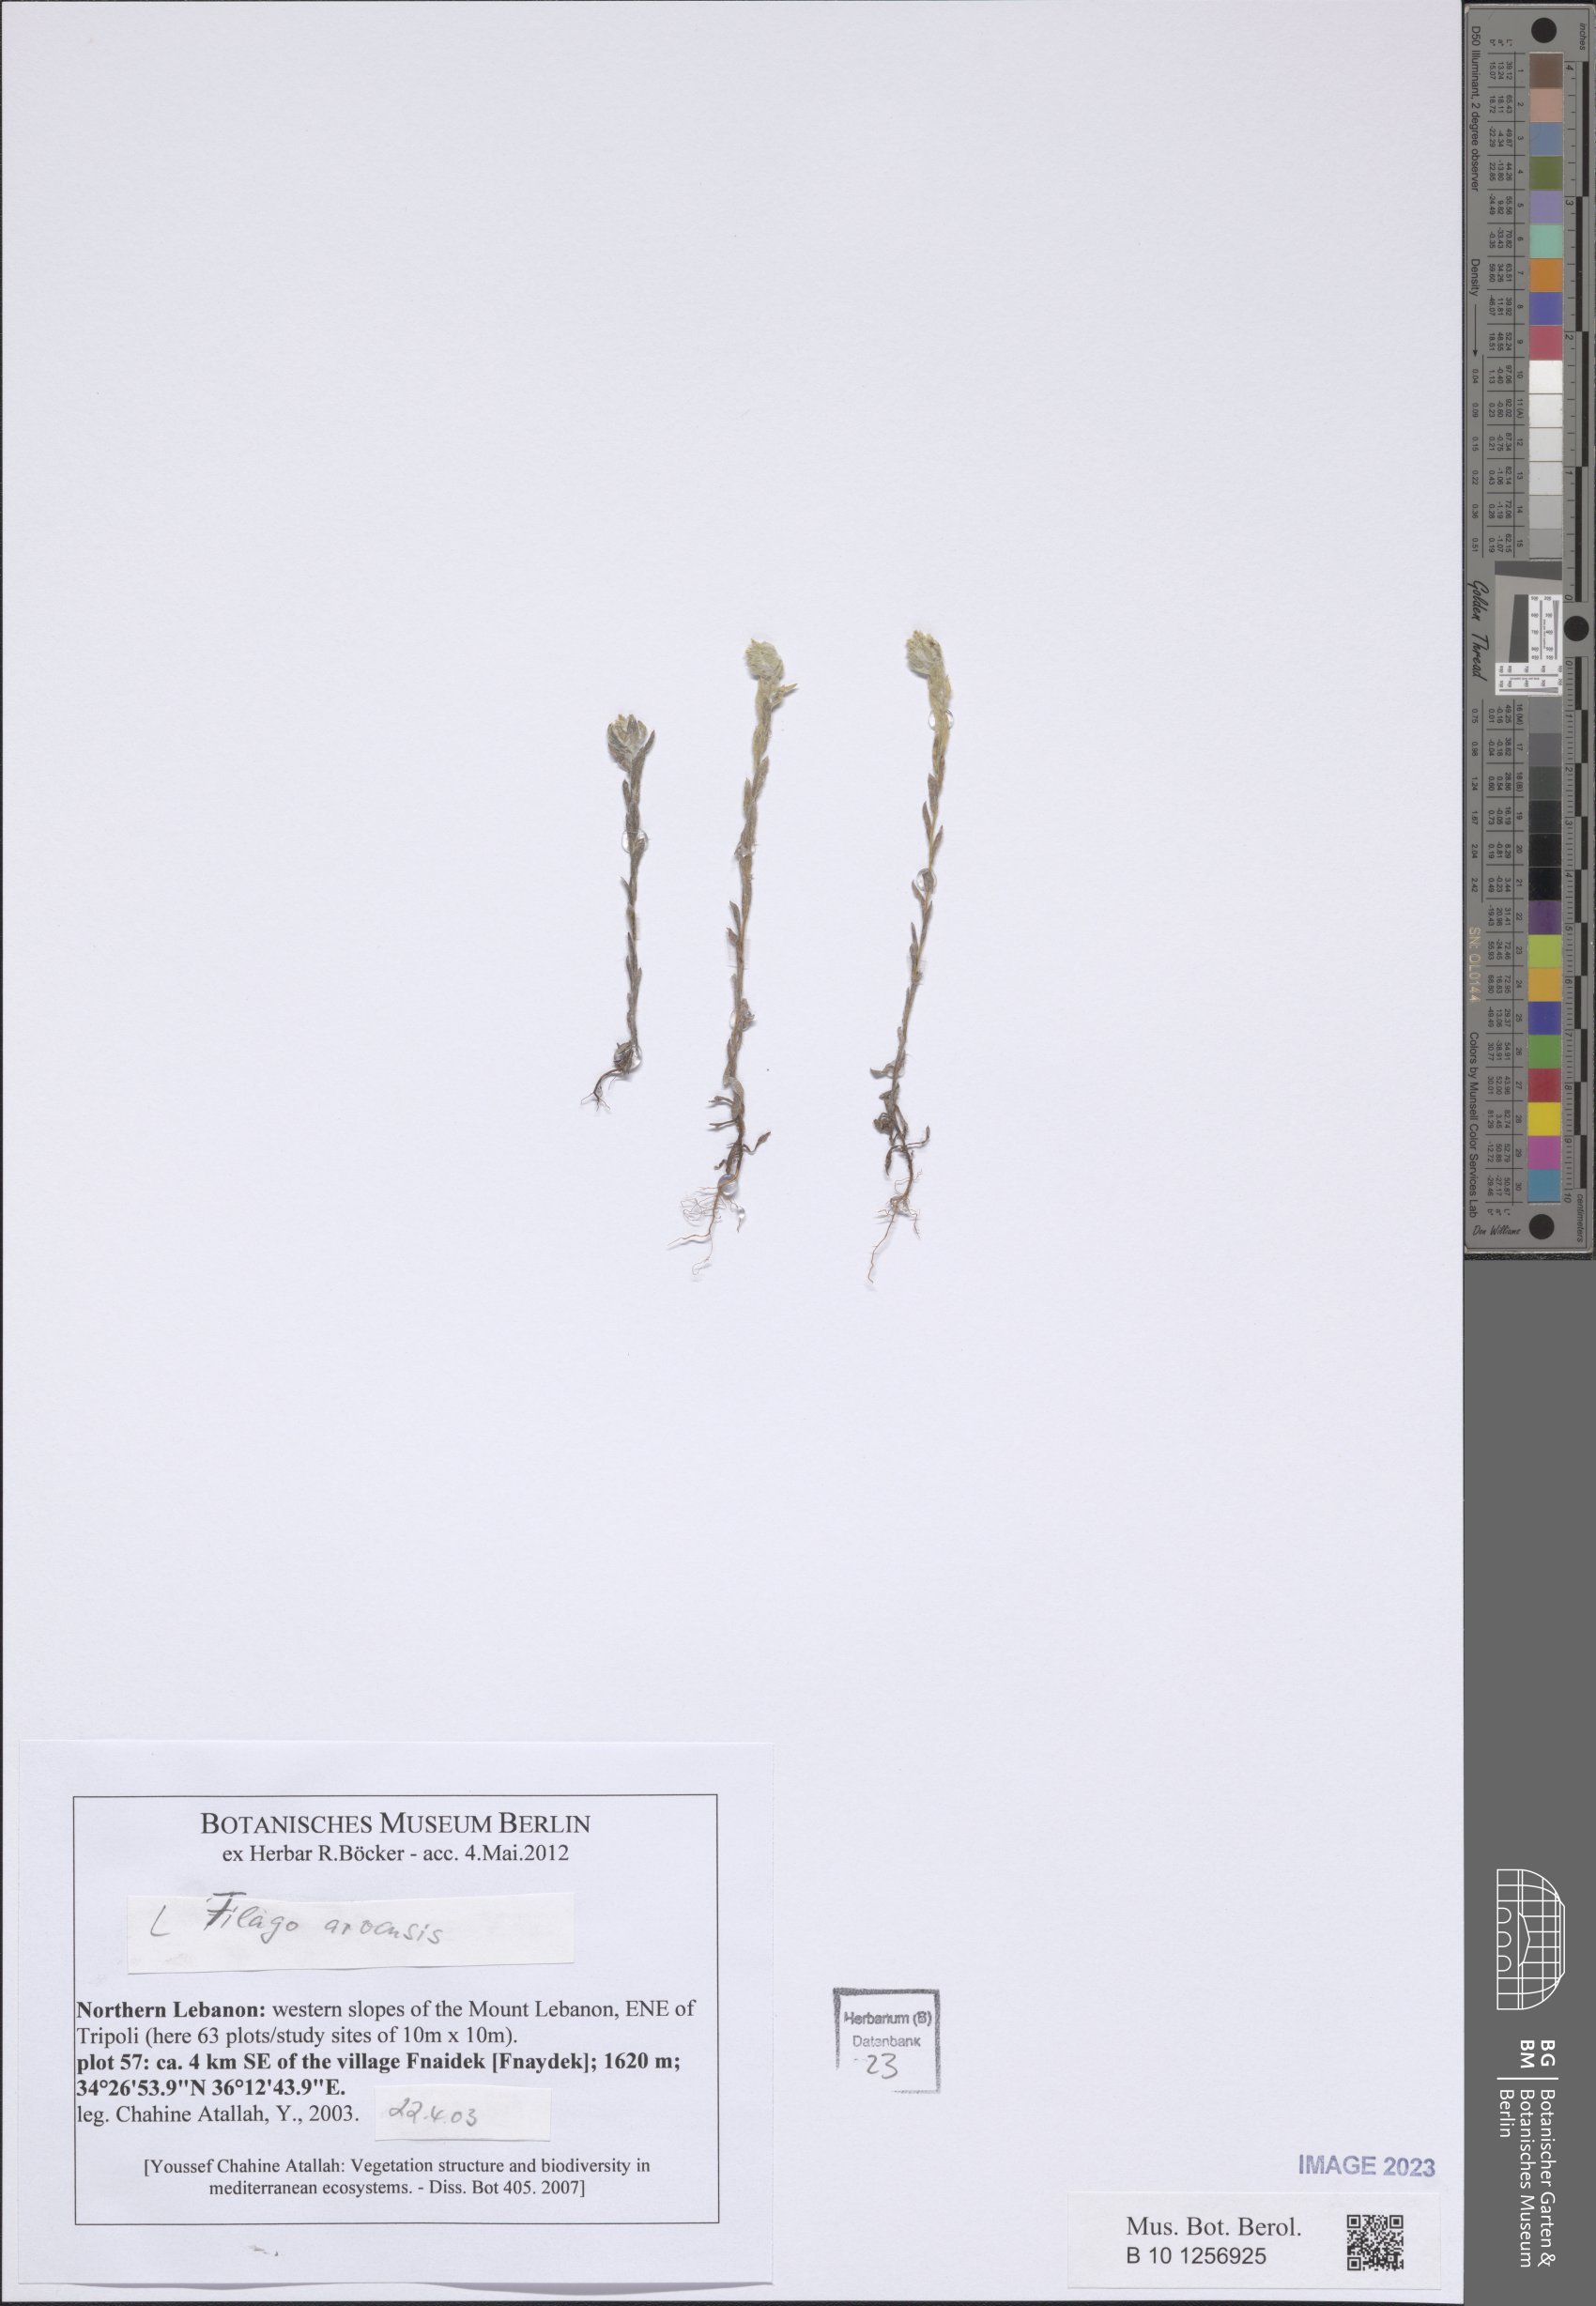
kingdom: Plantae
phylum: Tracheophyta
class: Magnoliopsida
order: Asterales
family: Asteraceae
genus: Filago
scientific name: Filago arvensis
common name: Field cudweed
